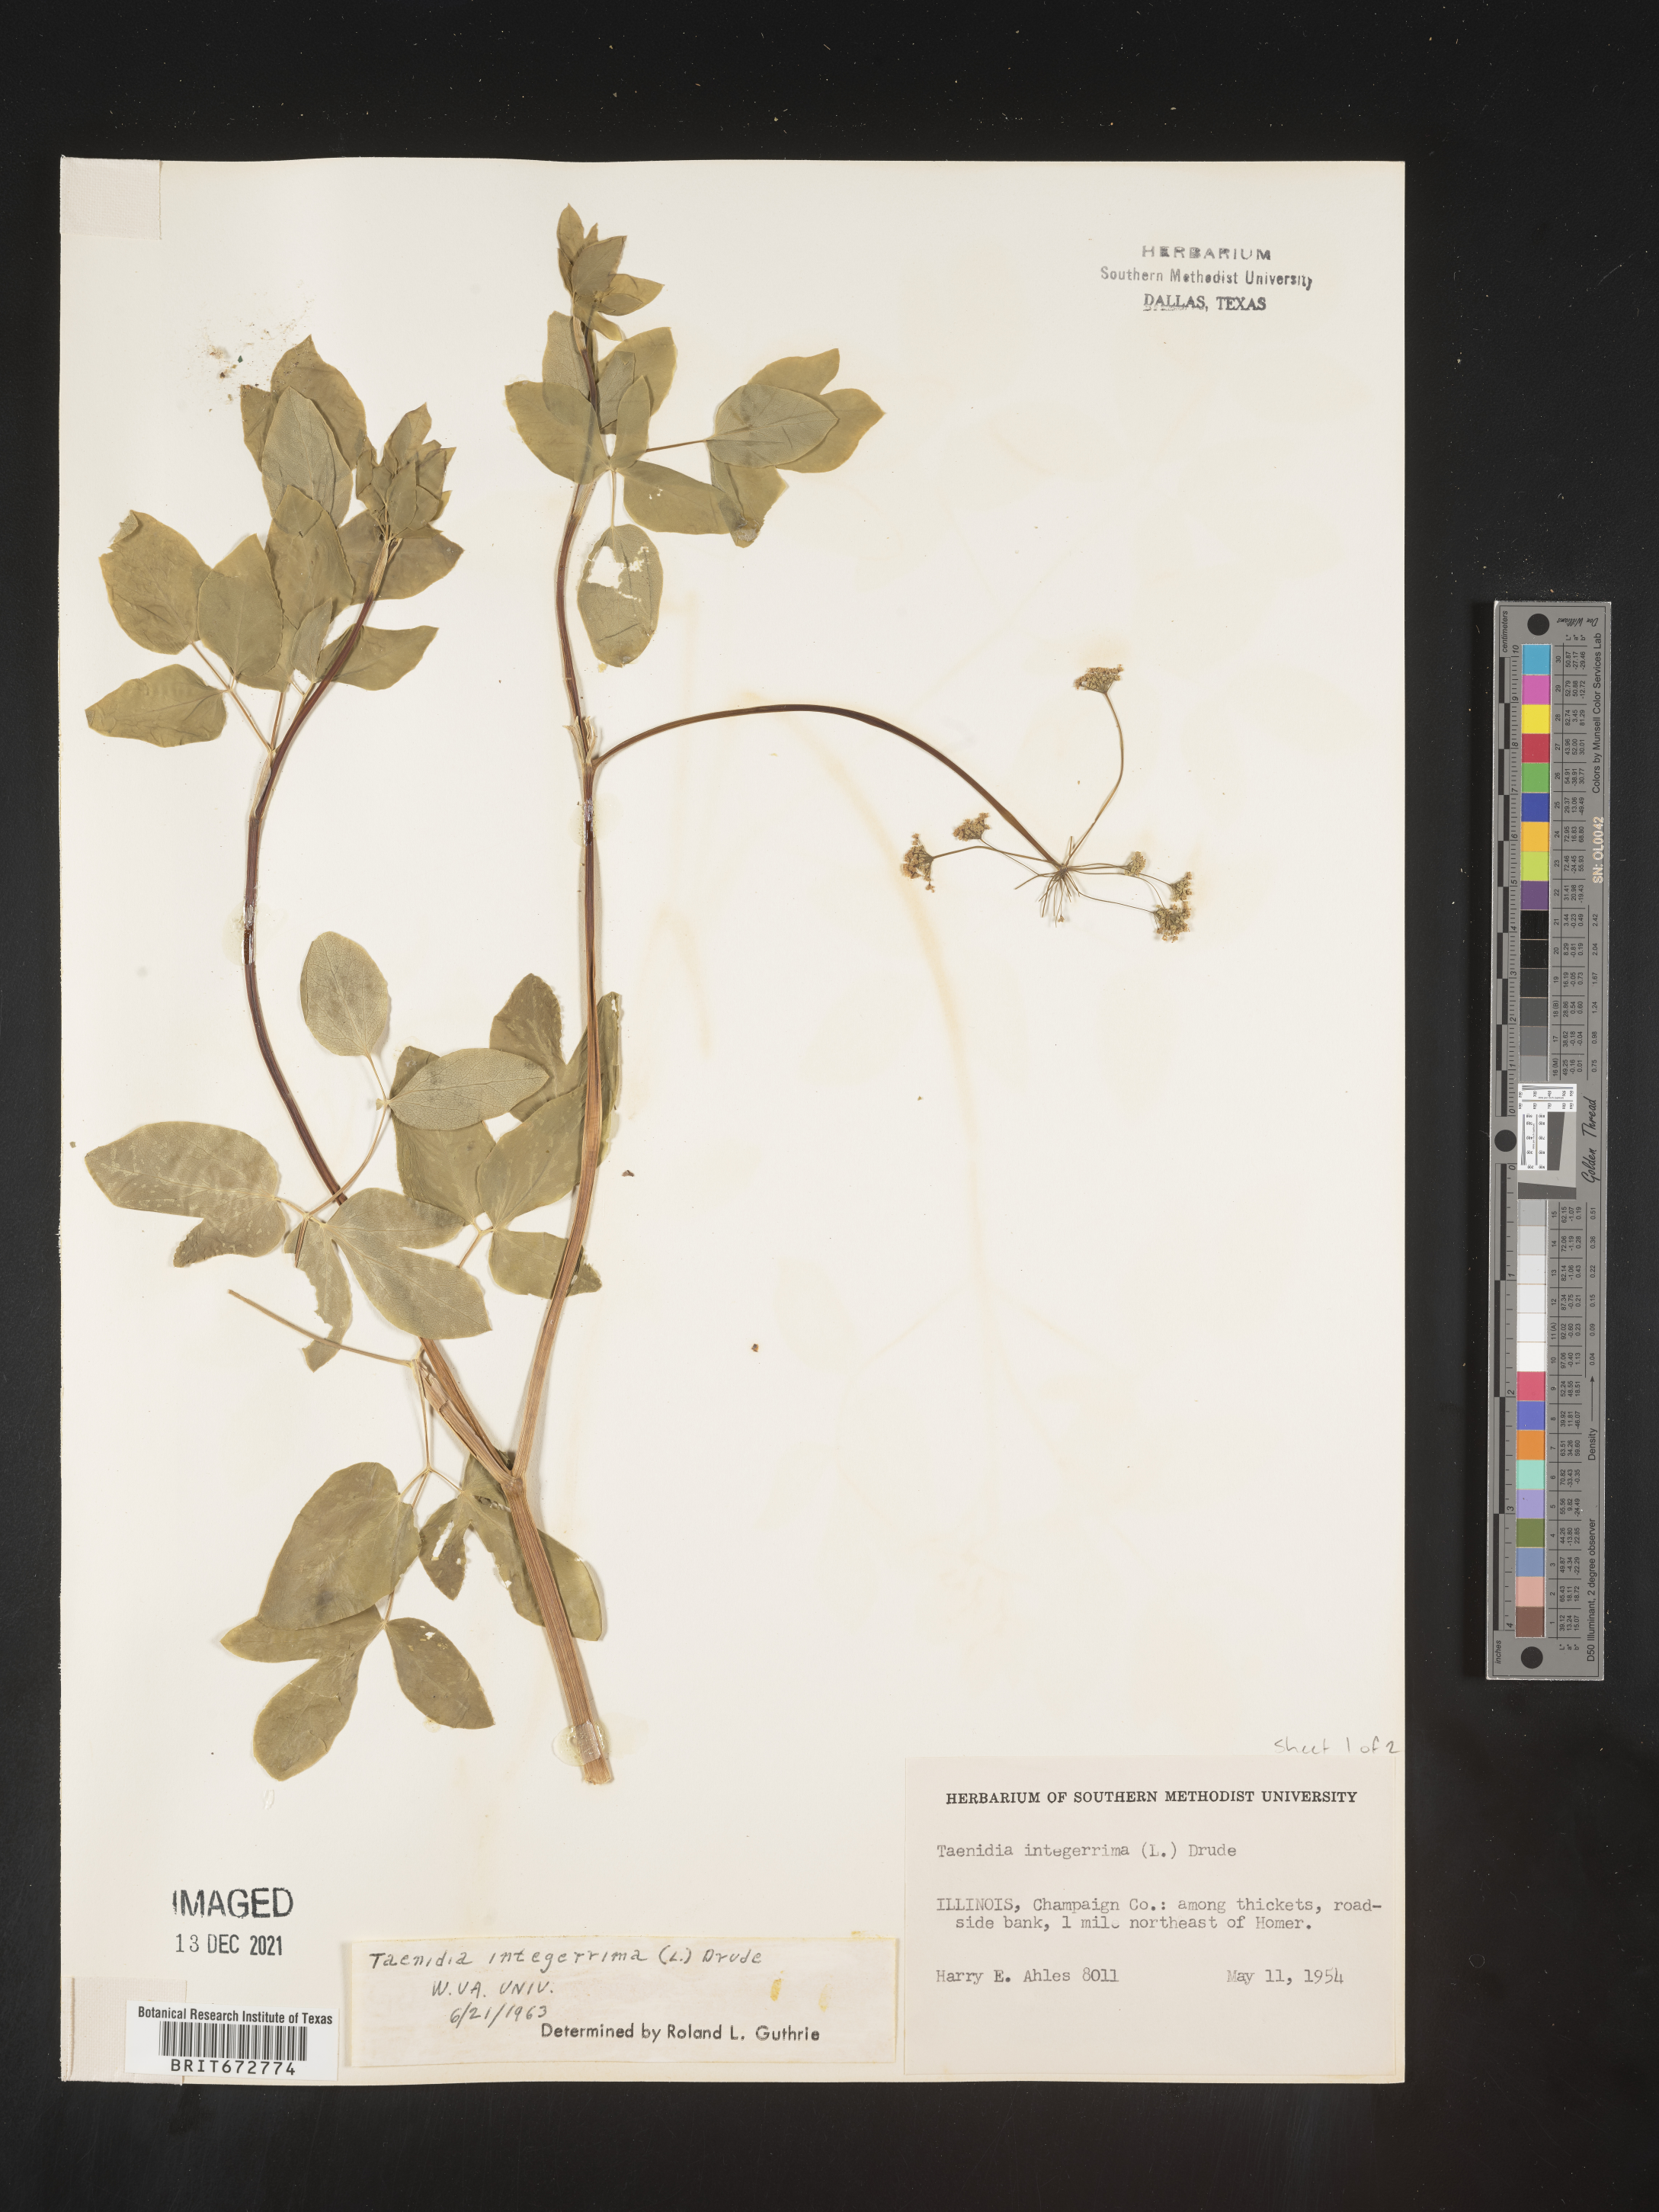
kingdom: Plantae
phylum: Tracheophyta
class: Magnoliopsida
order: Apiales
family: Apiaceae
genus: Taenidia
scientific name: Taenidia integerrima
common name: Golden alexander
